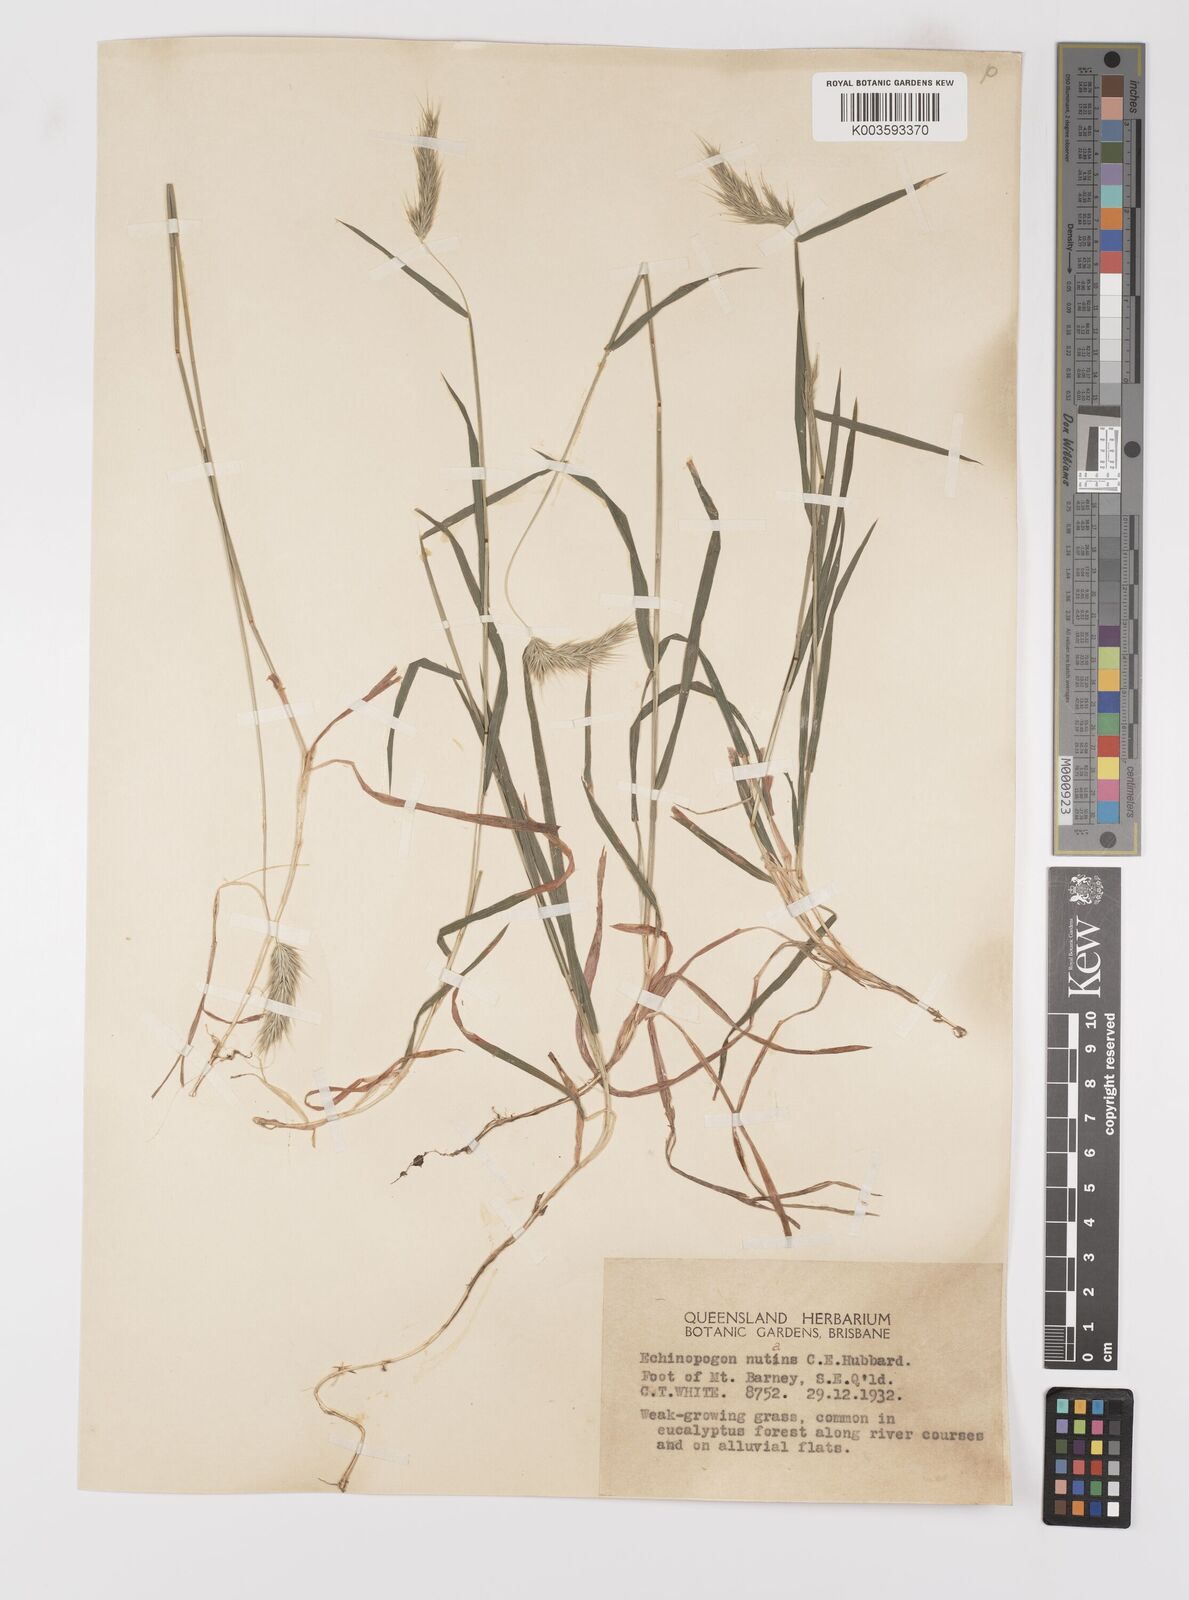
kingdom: Plantae
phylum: Tracheophyta
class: Liliopsida
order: Poales
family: Poaceae
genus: Echinopogon
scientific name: Echinopogon nutans
